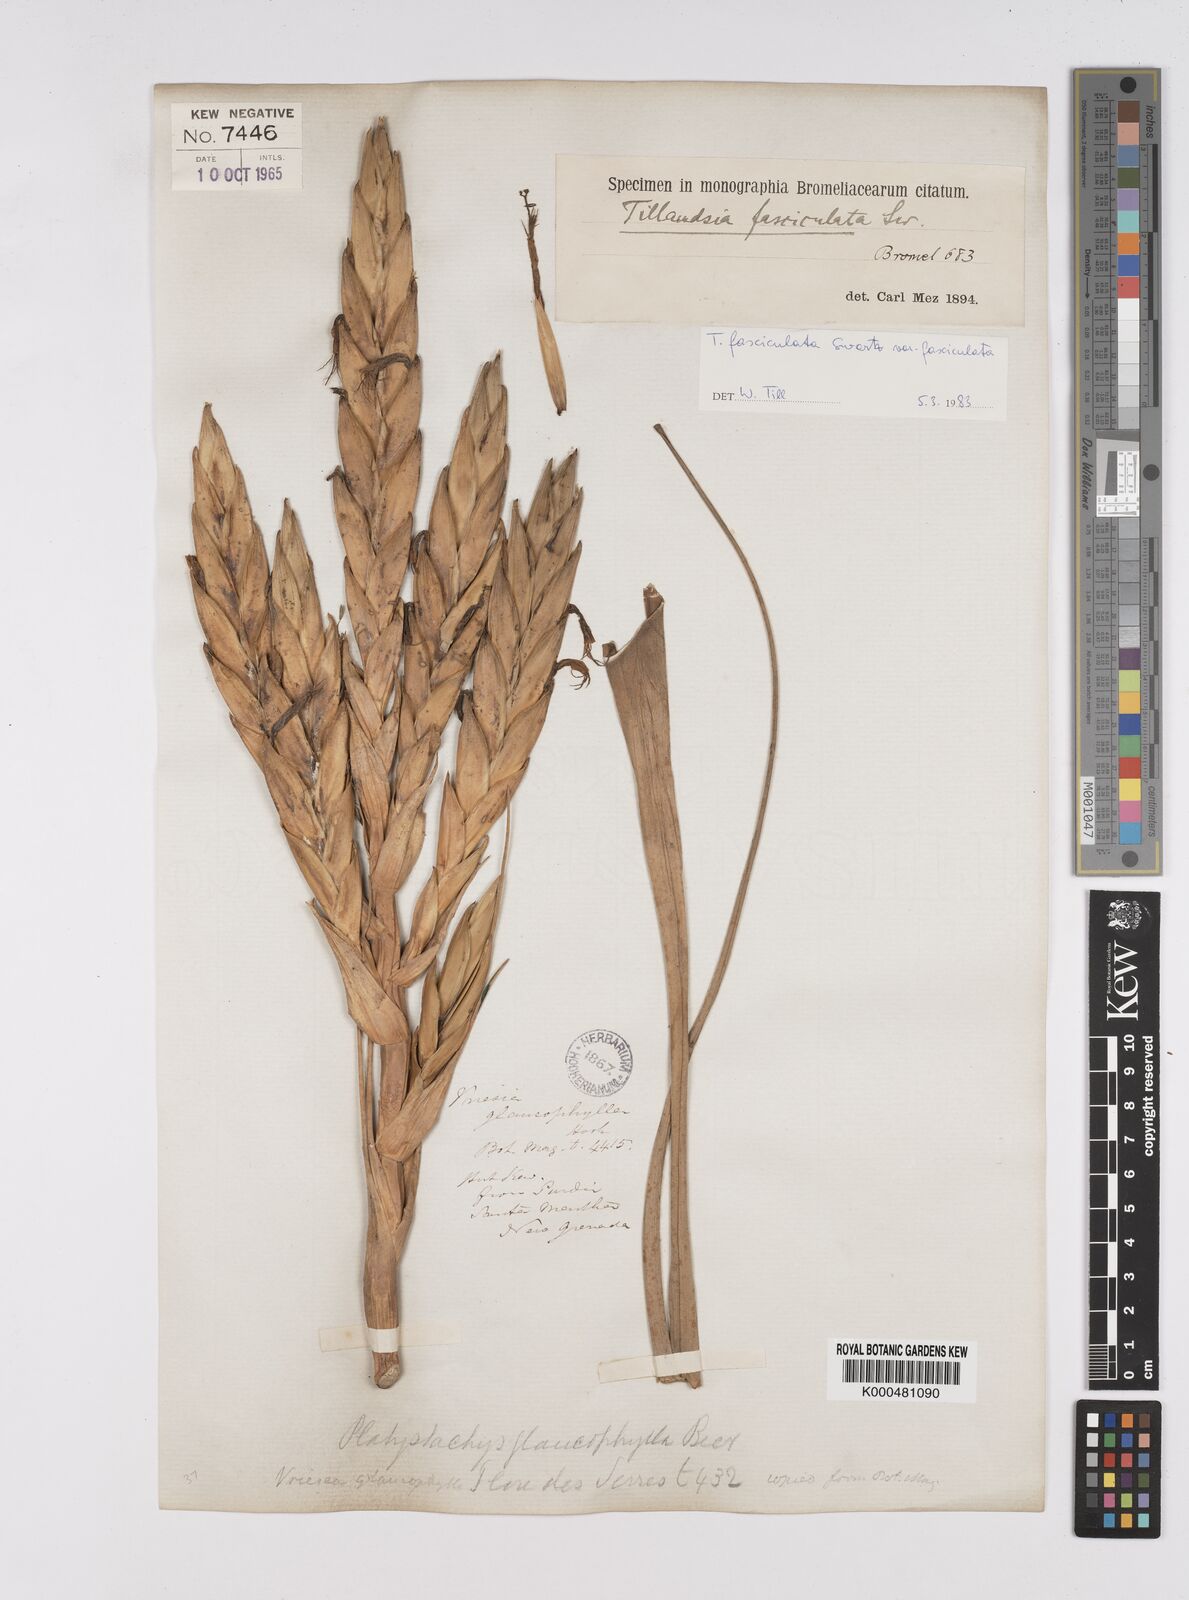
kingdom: Plantae
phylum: Tracheophyta
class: Liliopsida
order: Poales
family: Bromeliaceae
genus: Tillandsia
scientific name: Tillandsia fasciculata
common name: Giant airplant
